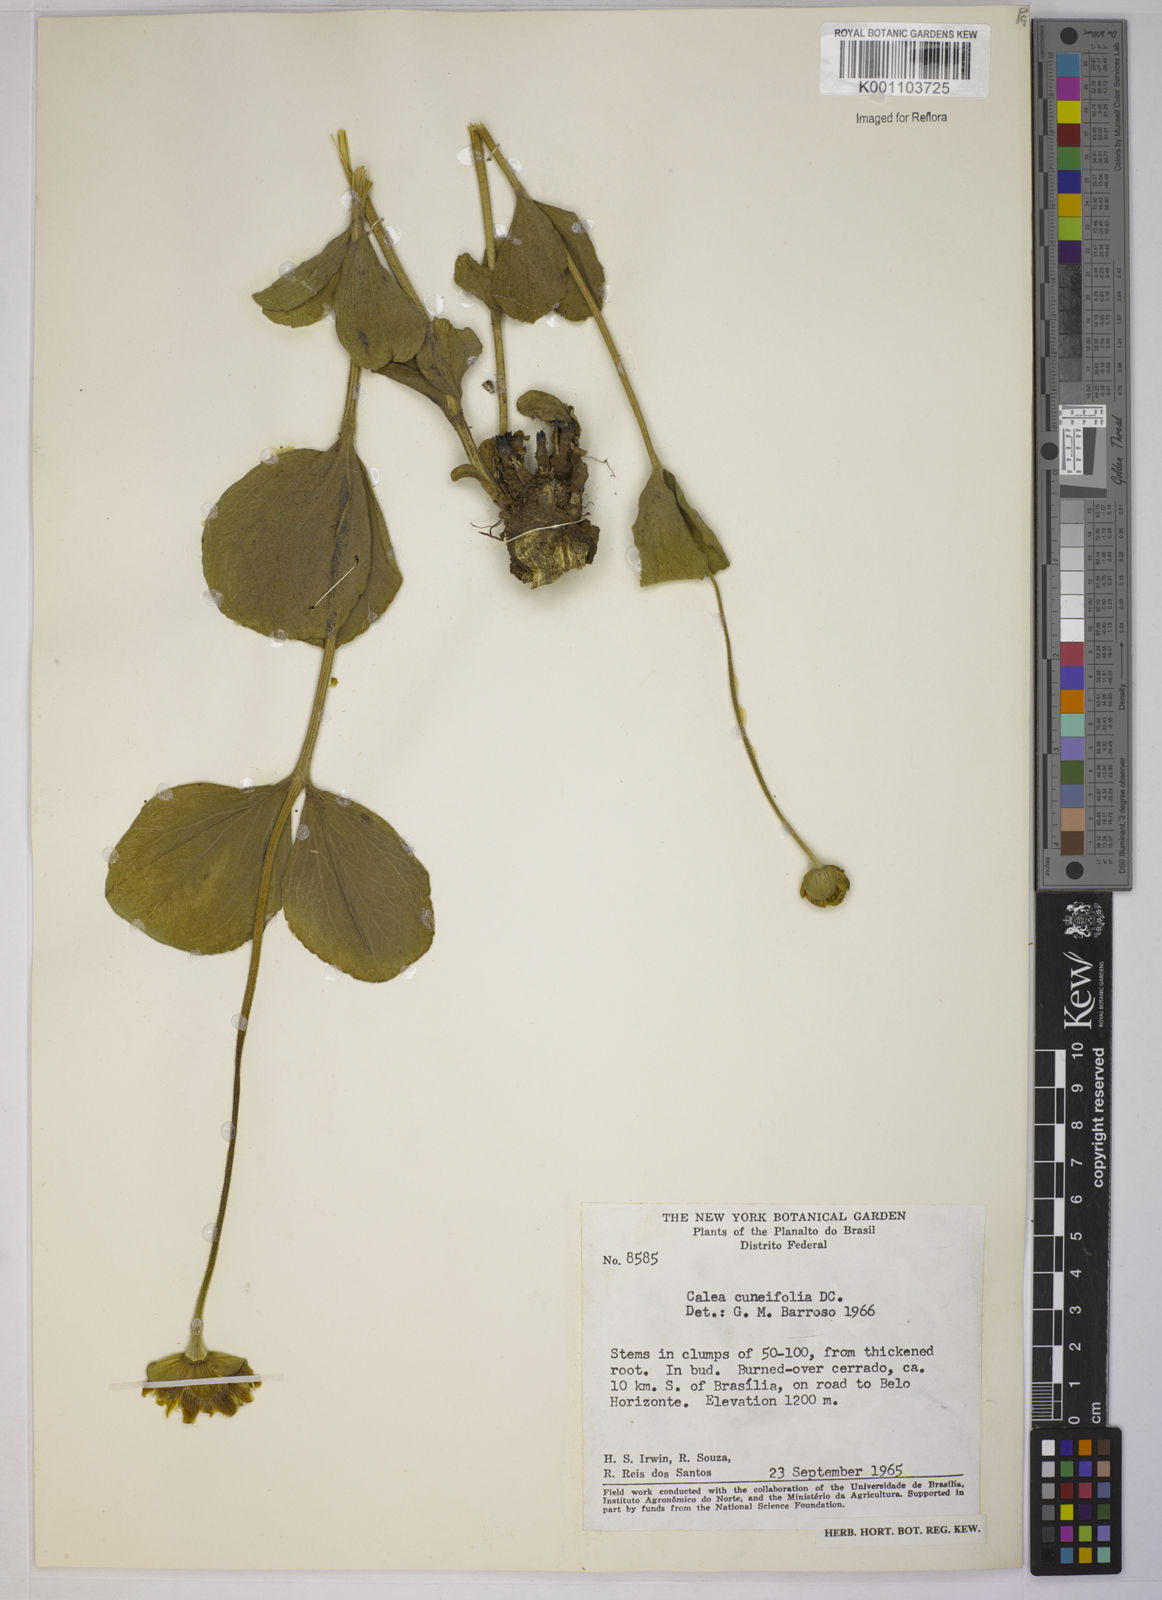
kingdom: Plantae
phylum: Tracheophyta
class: Magnoliopsida
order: Asterales
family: Asteraceae
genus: Calea
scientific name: Calea cuneifolia
